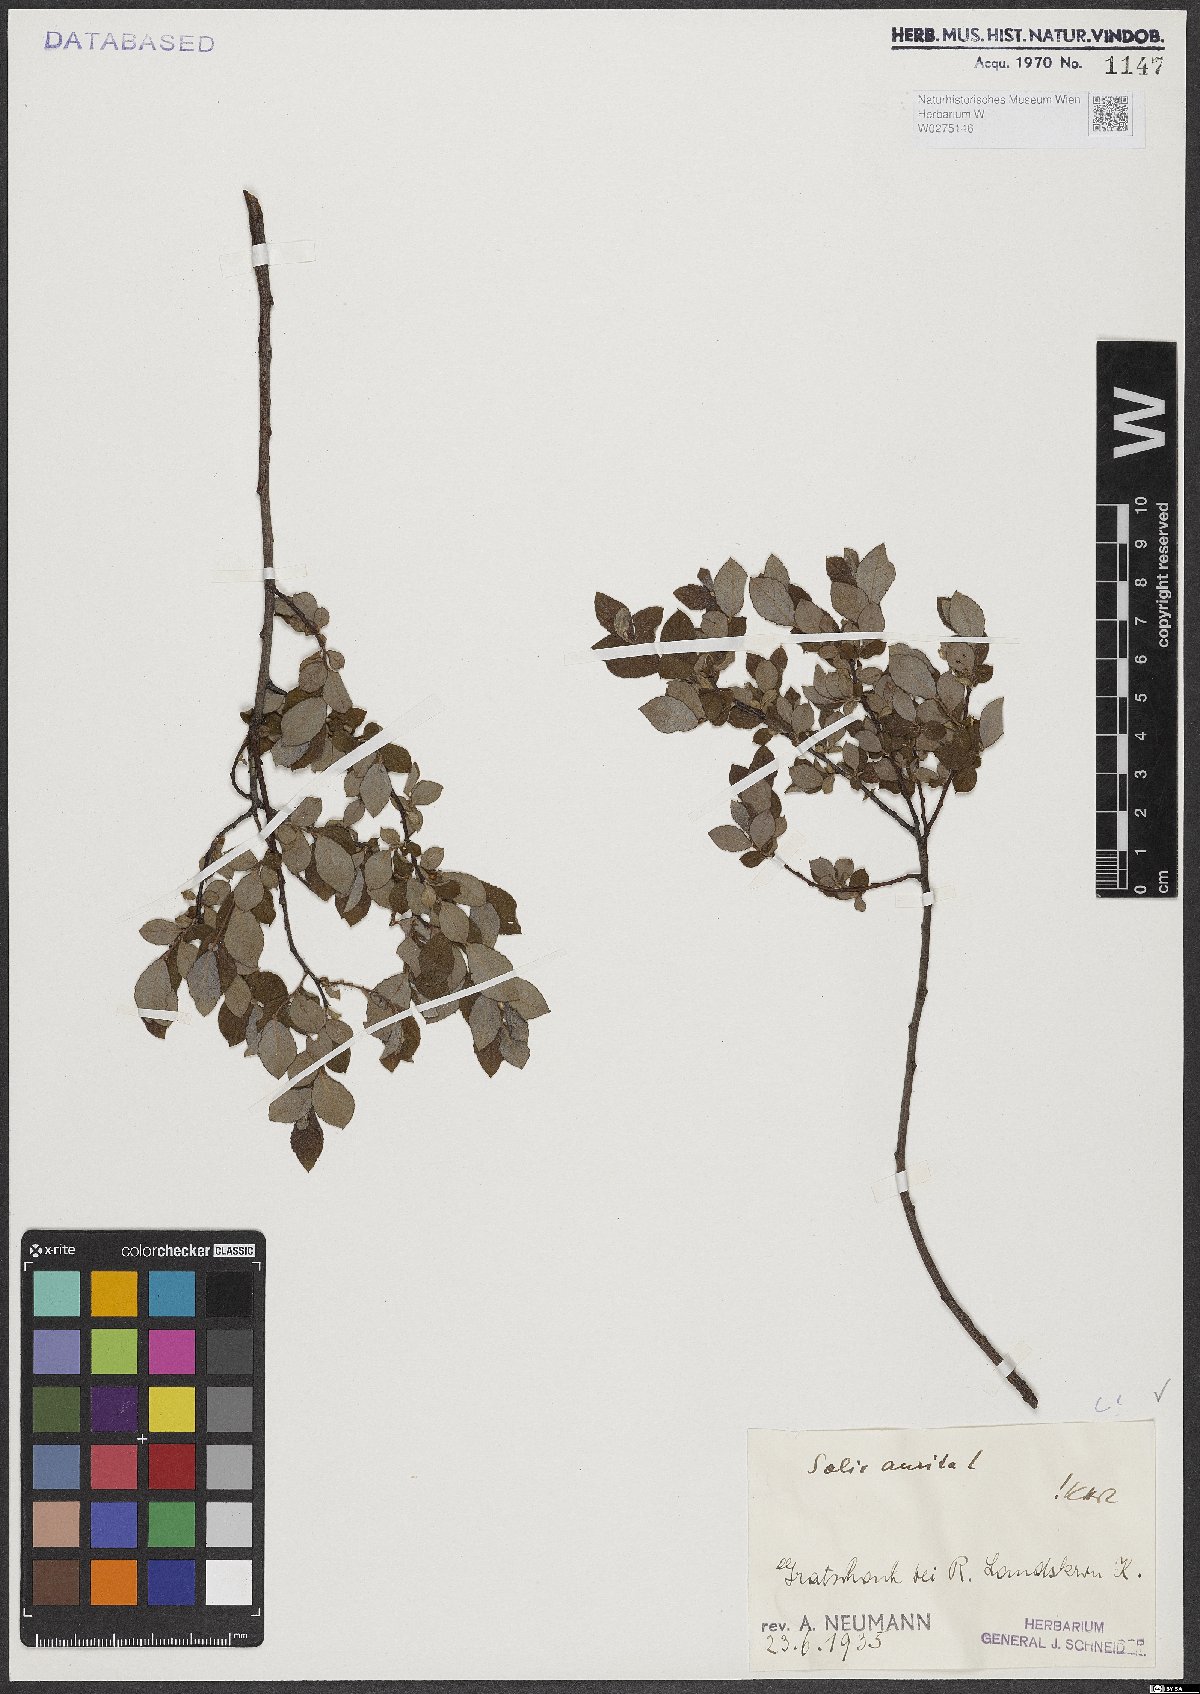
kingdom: Plantae
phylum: Tracheophyta
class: Magnoliopsida
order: Malpighiales
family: Salicaceae
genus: Salix
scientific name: Salix aurita
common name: Eared willow
